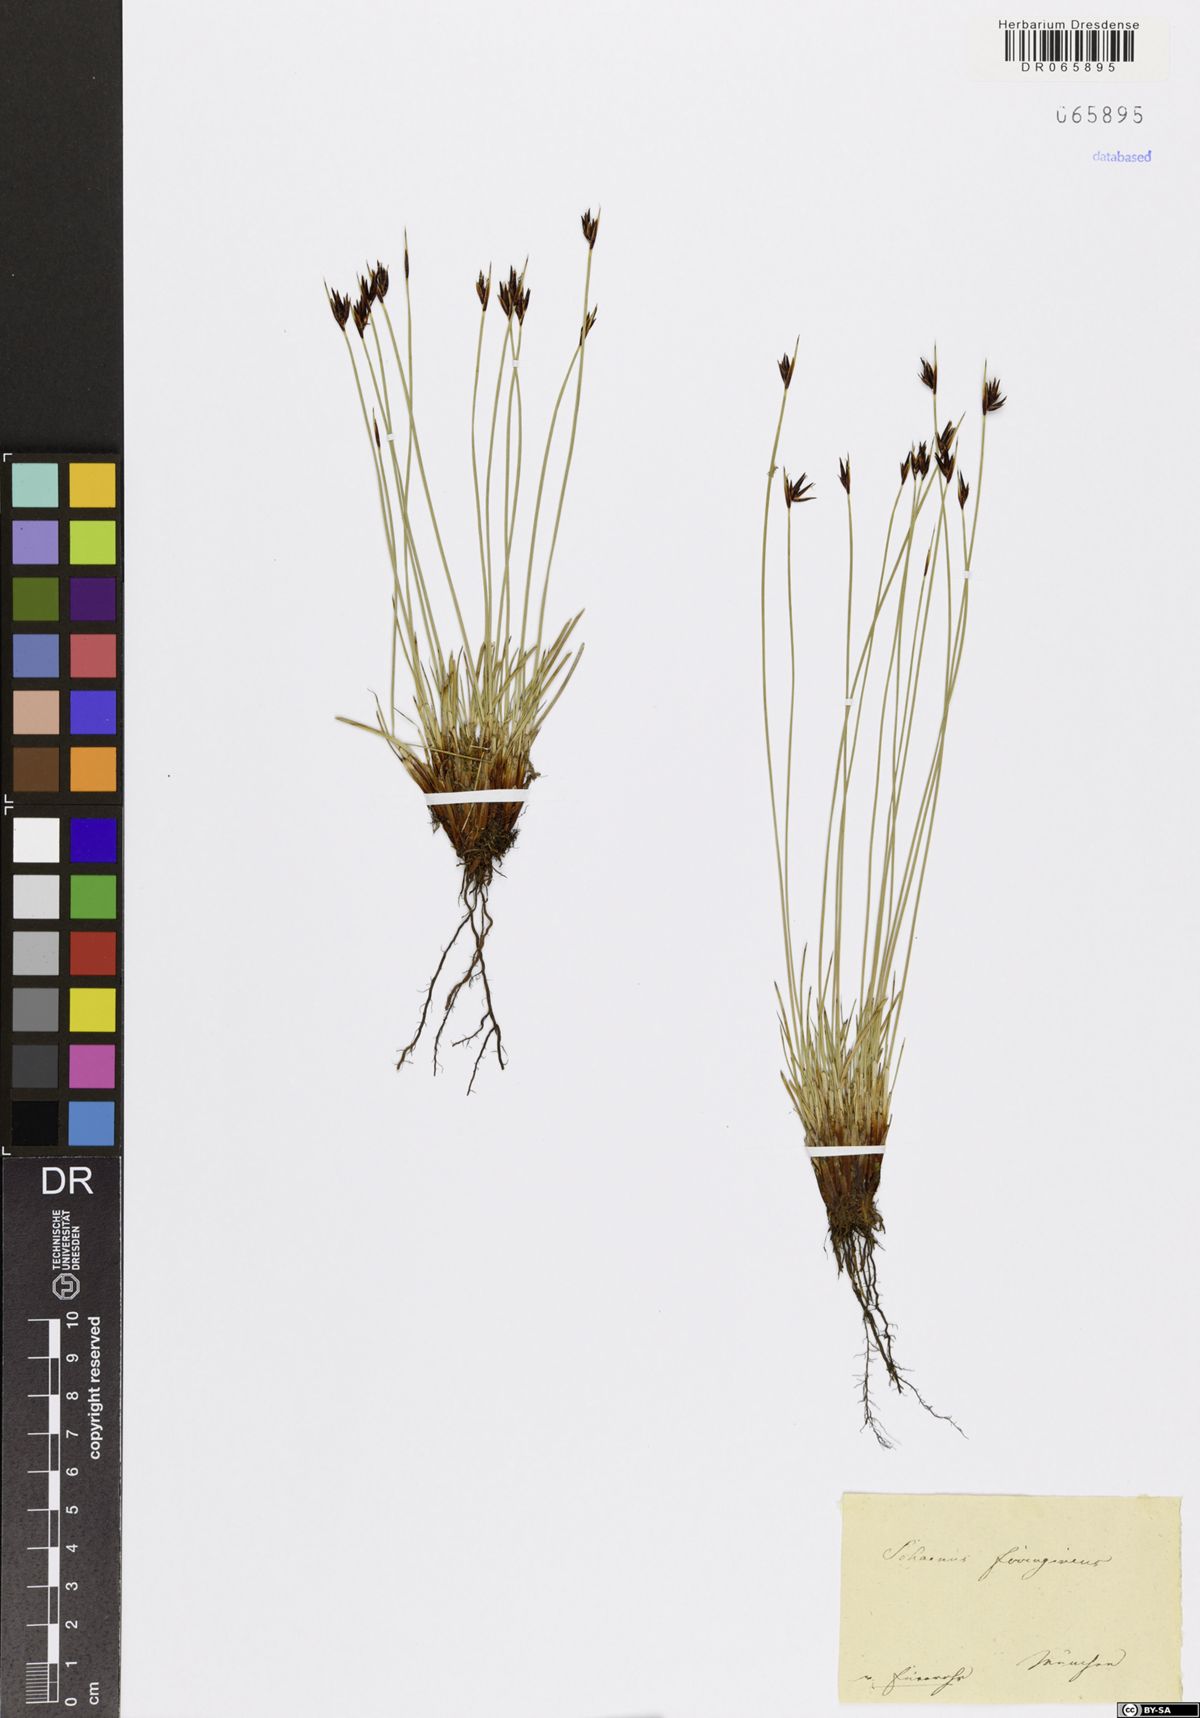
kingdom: Plantae
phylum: Tracheophyta
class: Liliopsida
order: Poales
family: Cyperaceae
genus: Schoenus
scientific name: Schoenus ferrugineus
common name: Brown bog-rush
